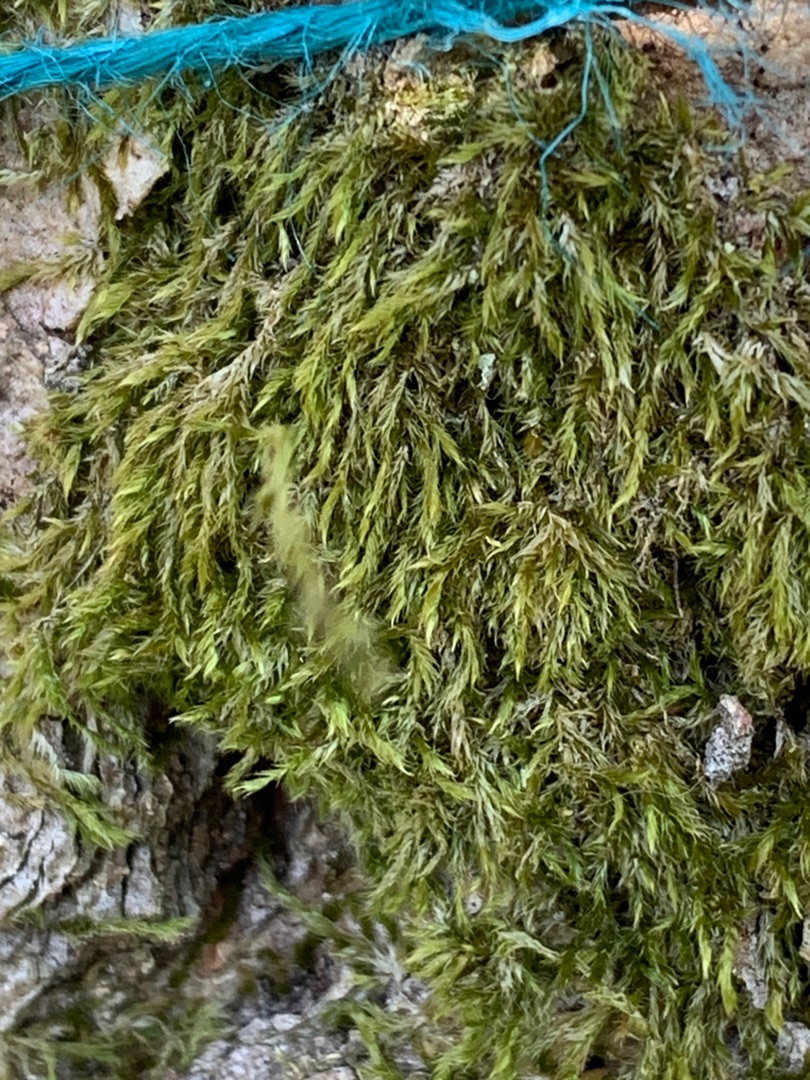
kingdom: Plantae
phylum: Bryophyta
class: Bryopsida
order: Hypnales
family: Hypnaceae
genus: Hypnum
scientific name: Hypnum
